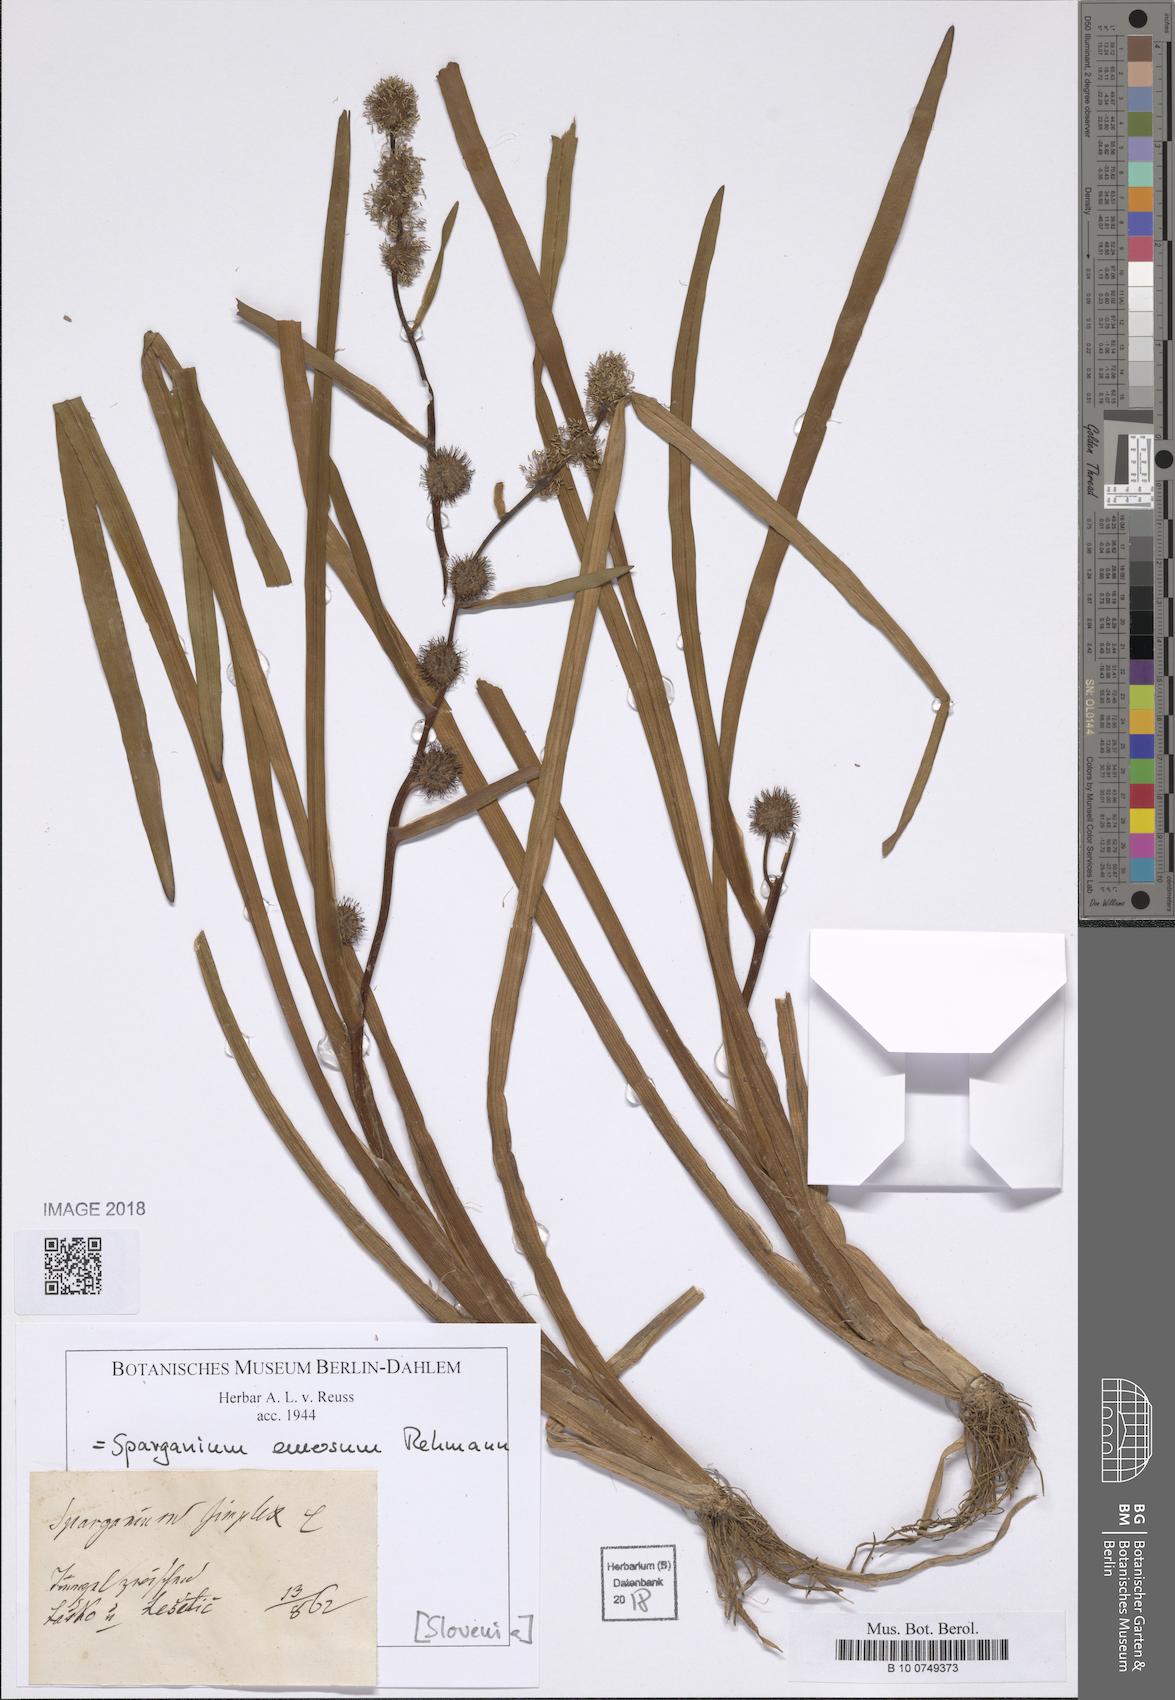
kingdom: Plantae
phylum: Tracheophyta
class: Liliopsida
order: Poales
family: Typhaceae
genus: Sparganium
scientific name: Sparganium emersum
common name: Unbranched bur-reed
